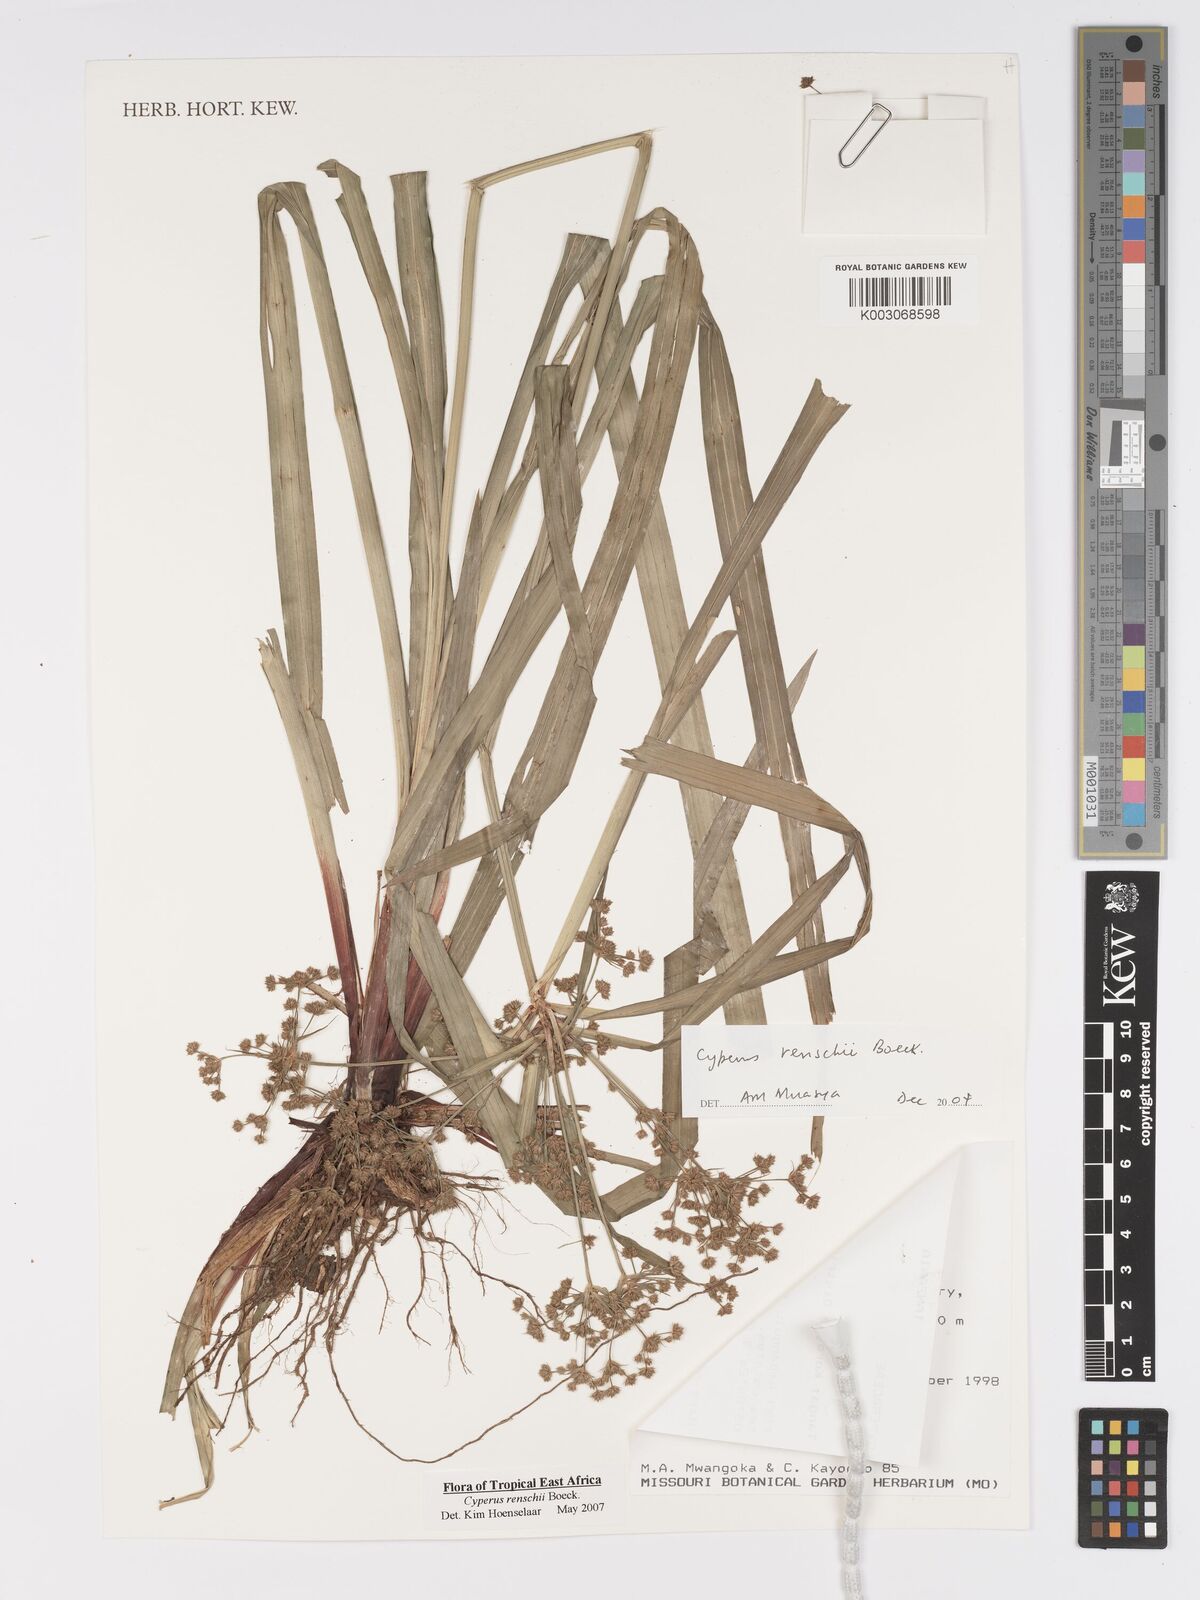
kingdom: Plantae
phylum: Tracheophyta
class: Liliopsida
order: Poales
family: Cyperaceae
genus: Cyperus
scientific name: Cyperus renschii
